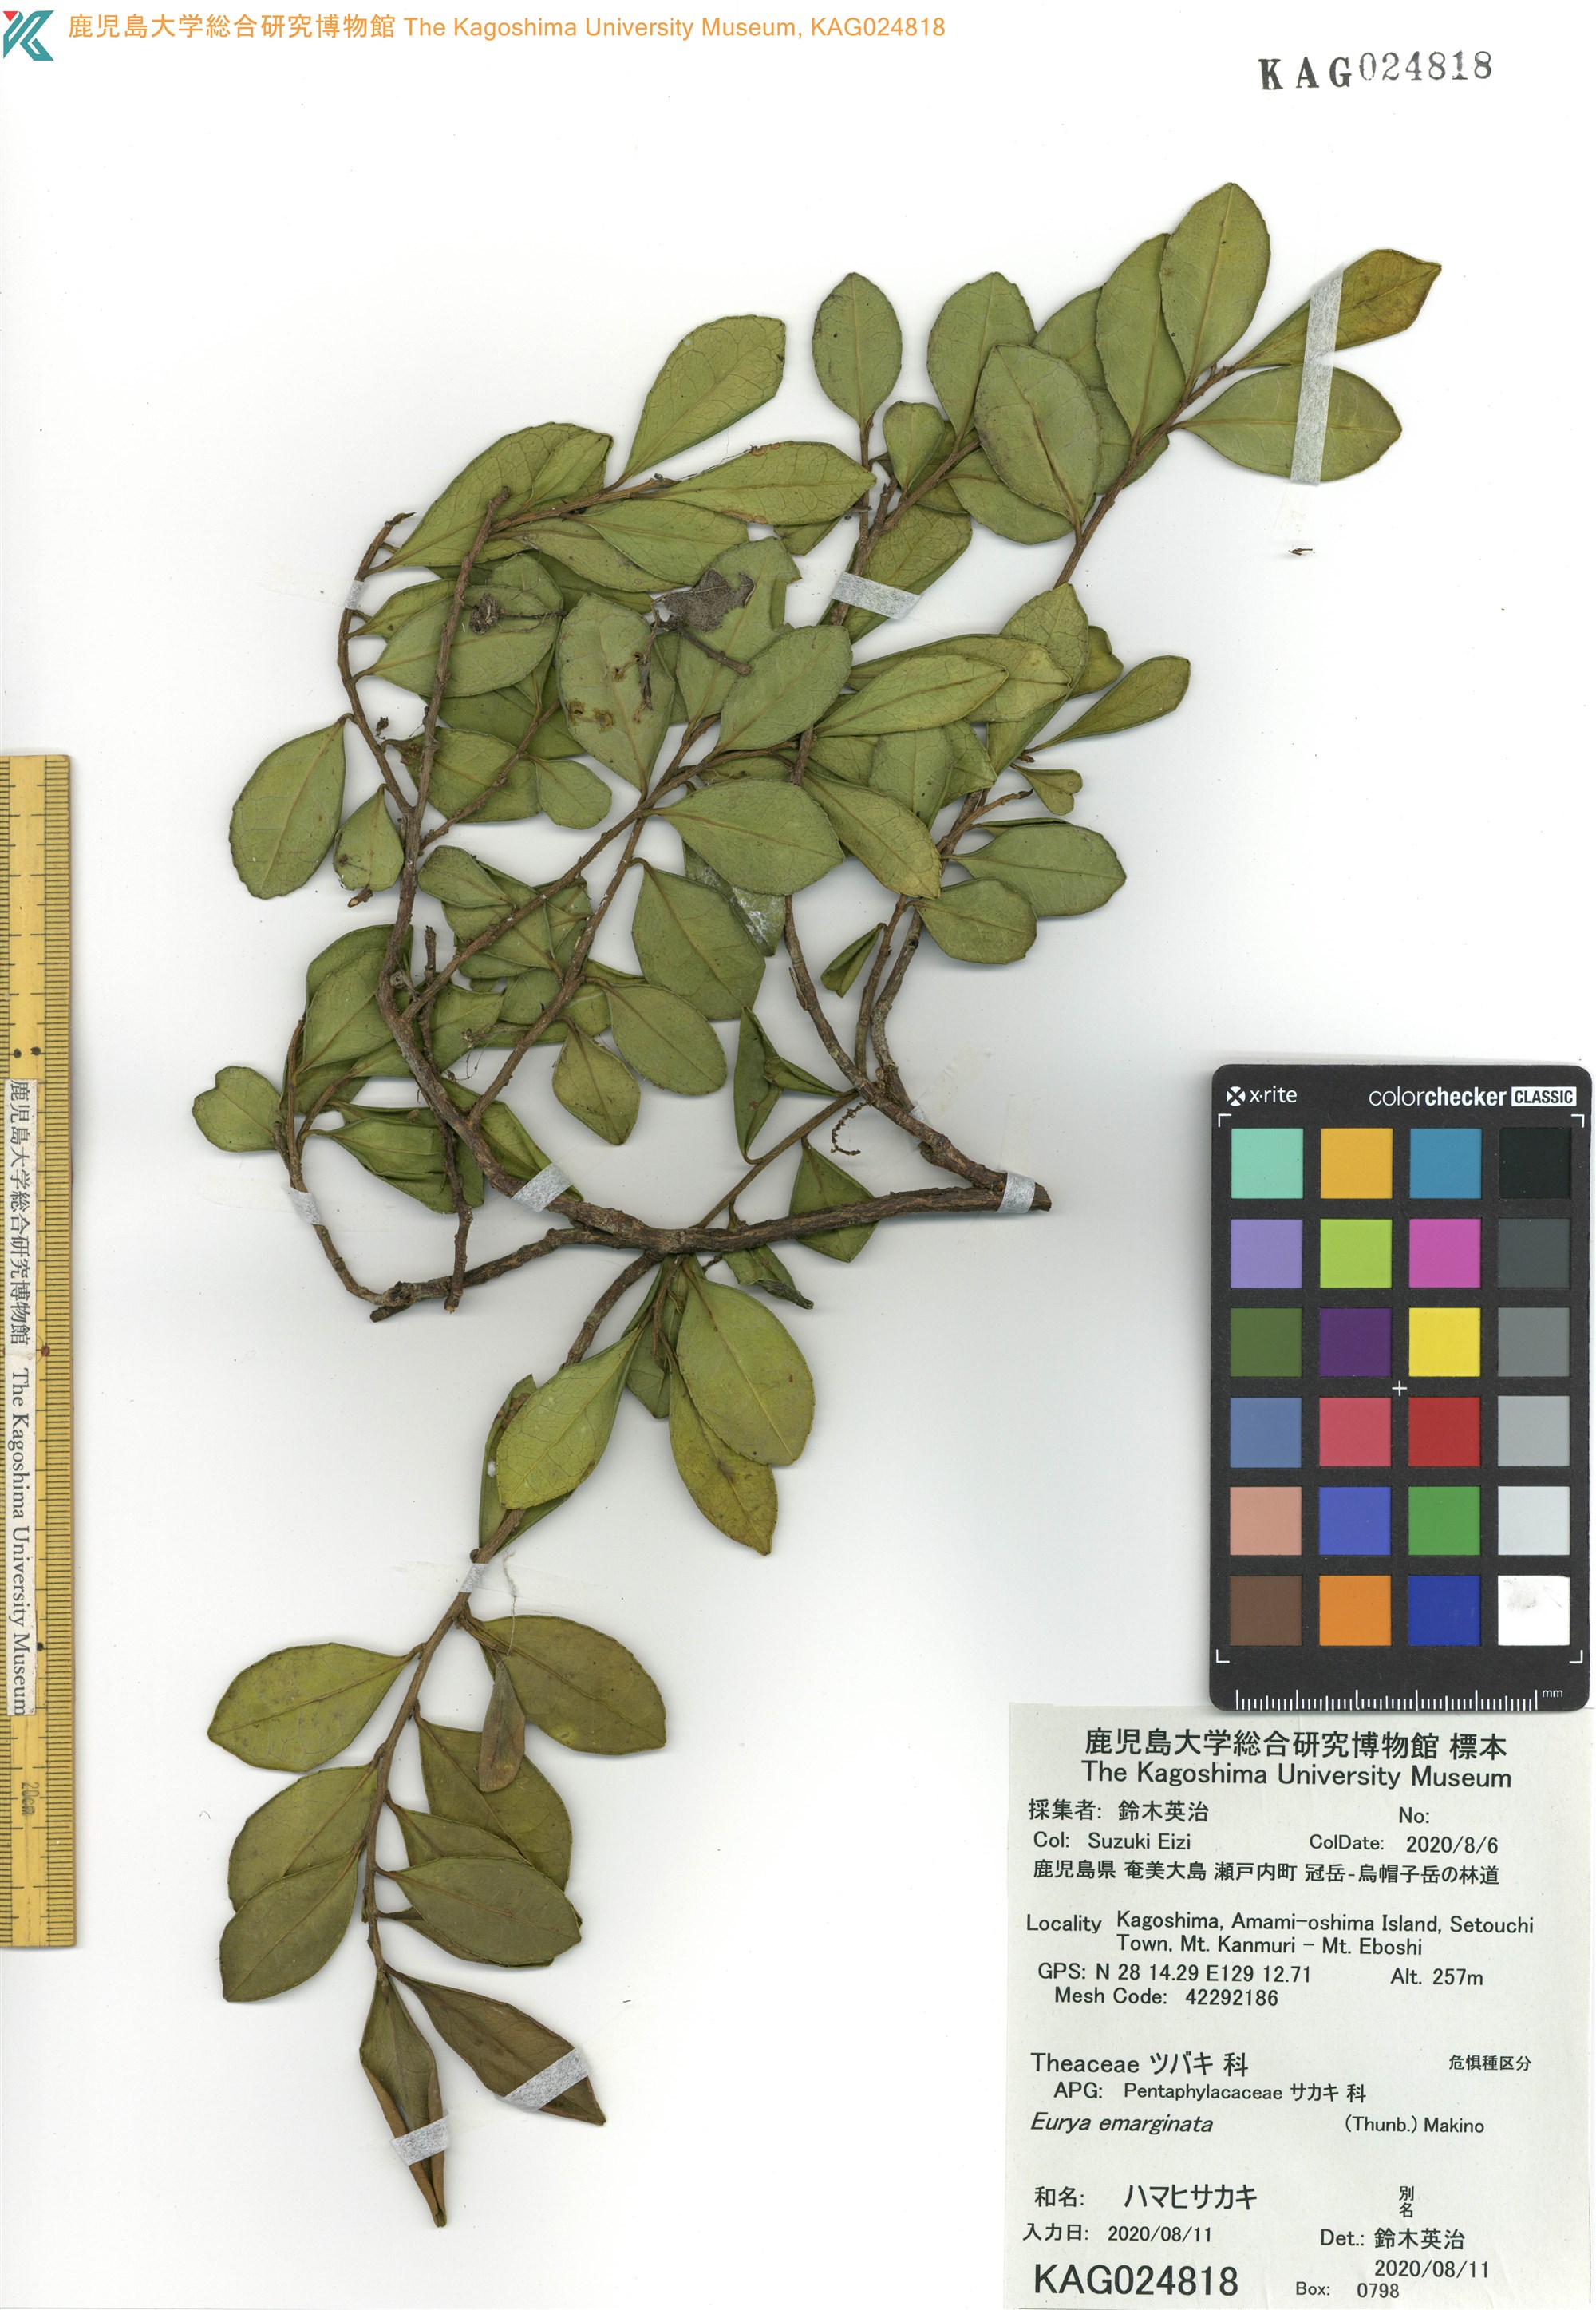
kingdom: Plantae
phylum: Tracheophyta
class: Magnoliopsida
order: Ericales
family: Pentaphylacaceae
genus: Eurya
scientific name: Eurya emarginata
